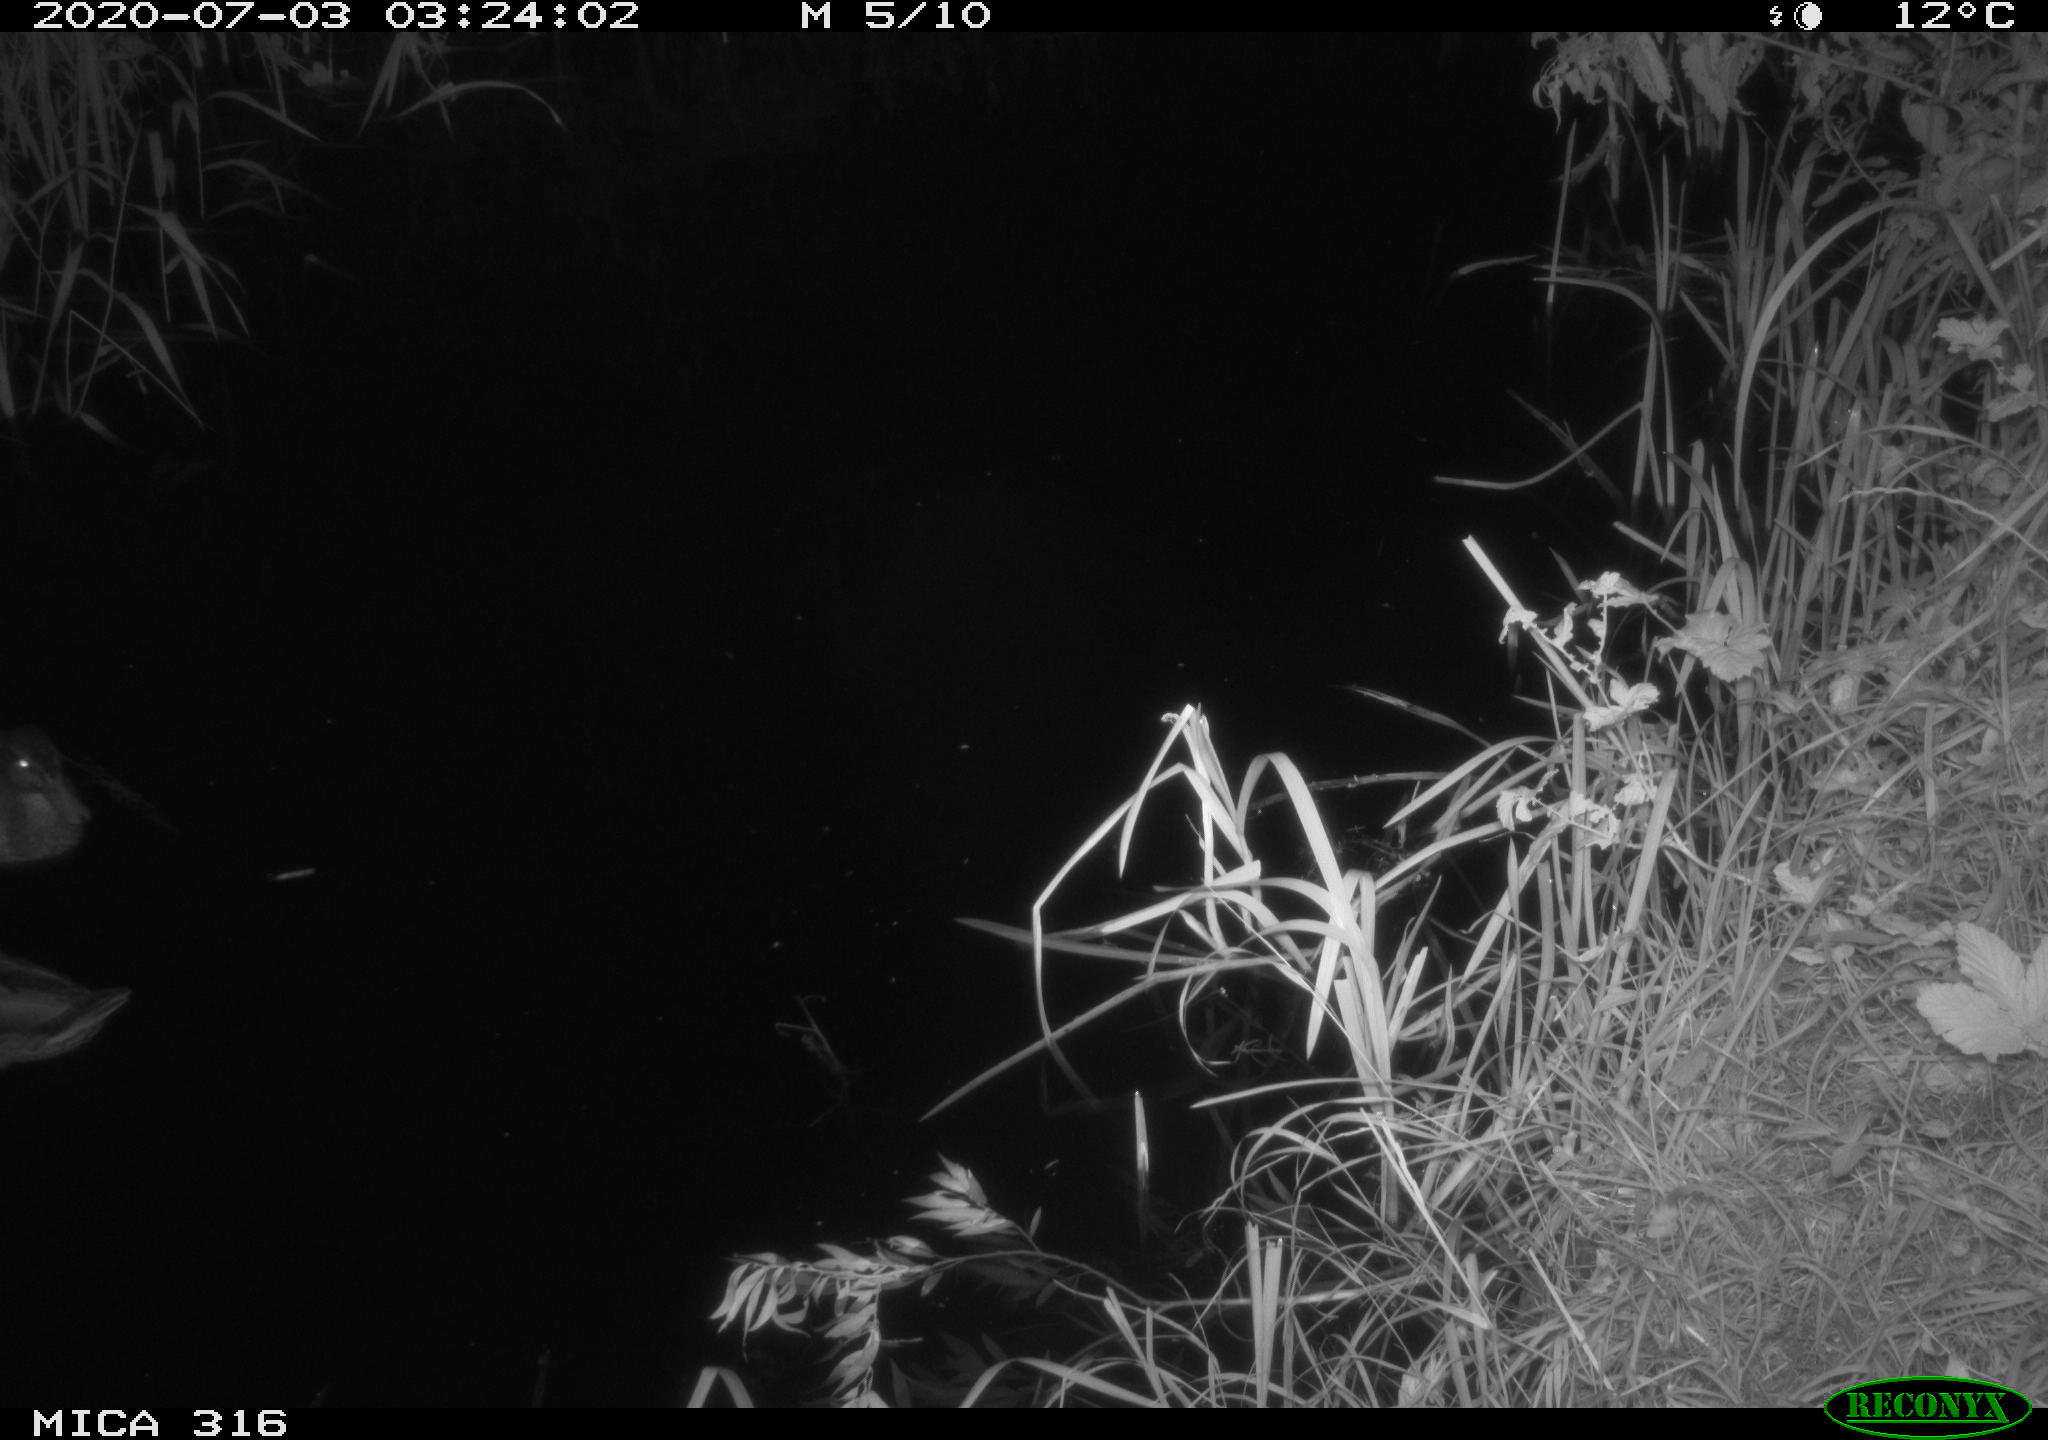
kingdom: Animalia
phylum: Chordata
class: Aves
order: Anseriformes
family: Anatidae
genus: Anas
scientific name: Anas platyrhynchos
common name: Mallard
